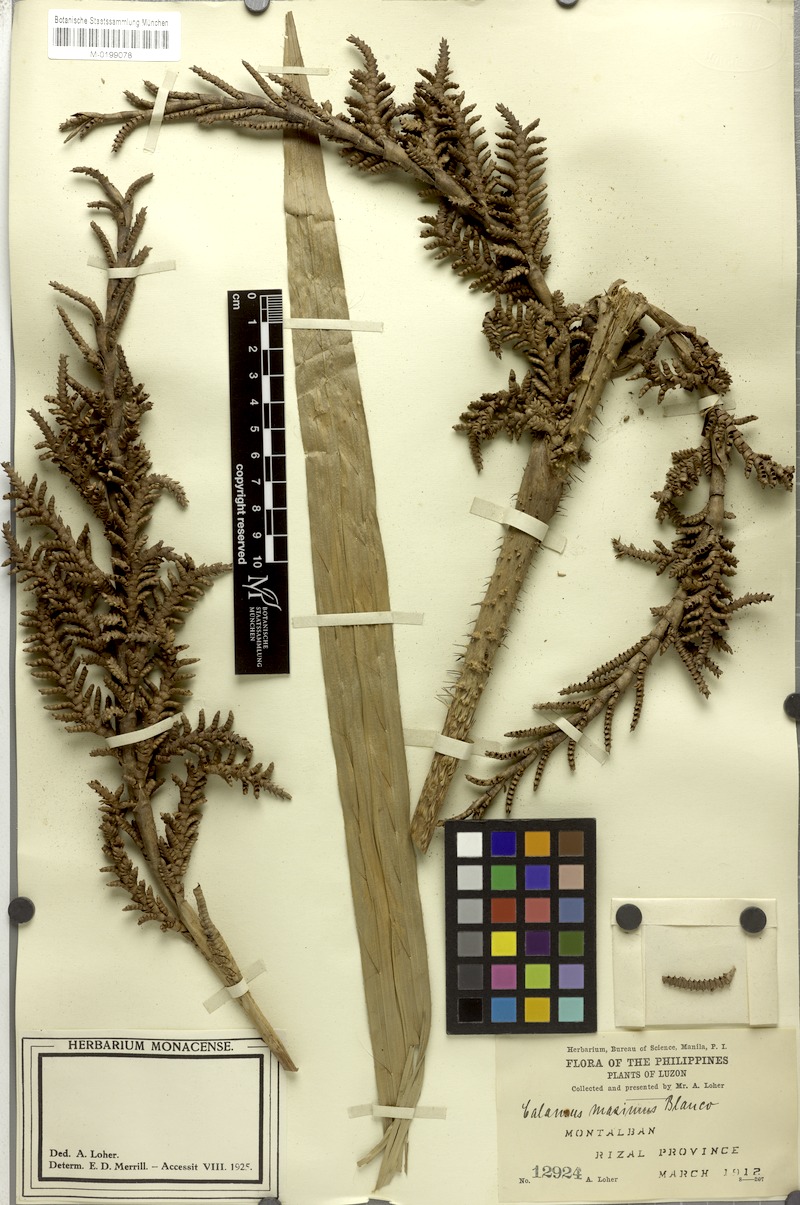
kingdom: Plantae
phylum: Tracheophyta
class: Liliopsida
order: Arecales
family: Arecaceae
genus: Calamus
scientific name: Calamus zollingeri
